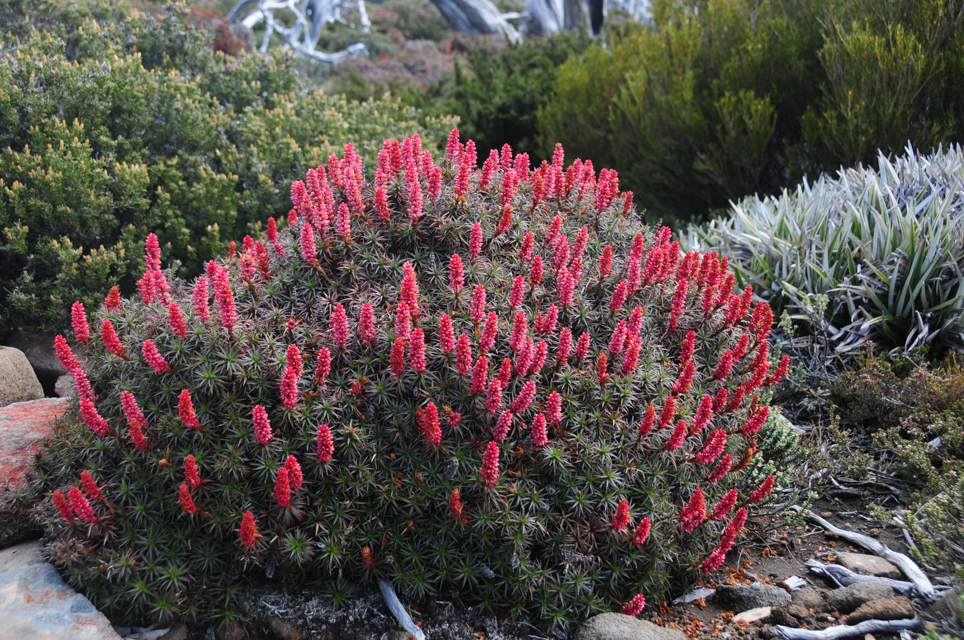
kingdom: Plantae
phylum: Tracheophyta
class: Magnoliopsida
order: Ericales
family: Ericaceae
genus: Dracophyllum
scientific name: Dracophyllum persistentifolium
